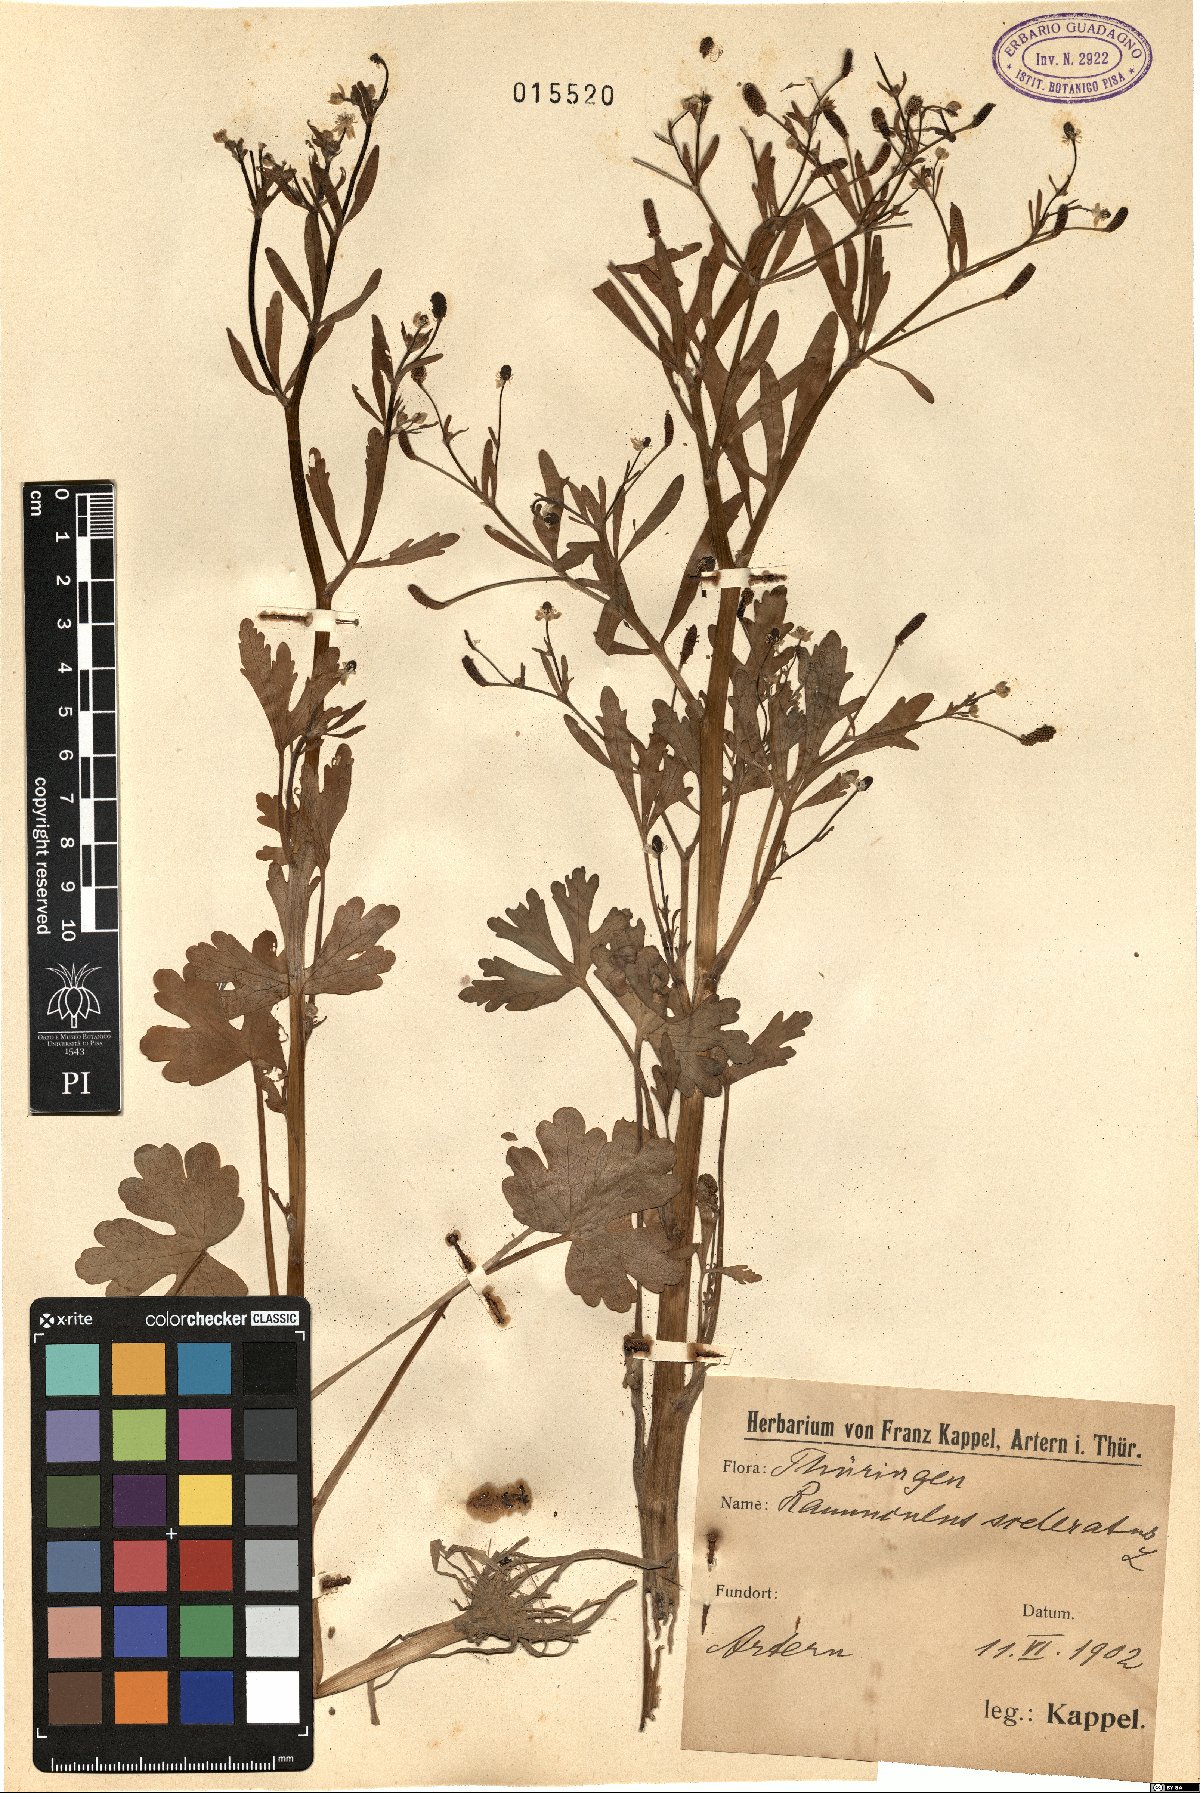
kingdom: Plantae
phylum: Tracheophyta
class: Magnoliopsida
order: Ranunculales
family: Ranunculaceae
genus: Ranunculus
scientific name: Ranunculus sceleratus
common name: Celery-leaved buttercup
